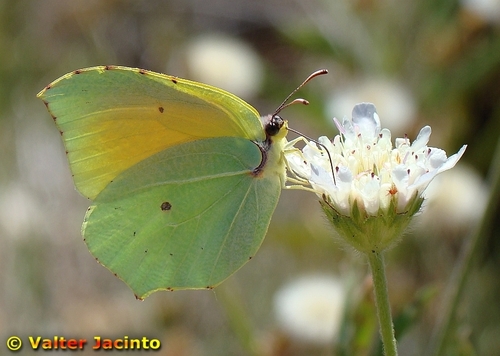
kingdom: Animalia
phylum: Arthropoda
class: Insecta
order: Lepidoptera
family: Pieridae
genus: Gonepteryx
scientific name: Gonepteryx cleopatra
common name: Cleopatra
